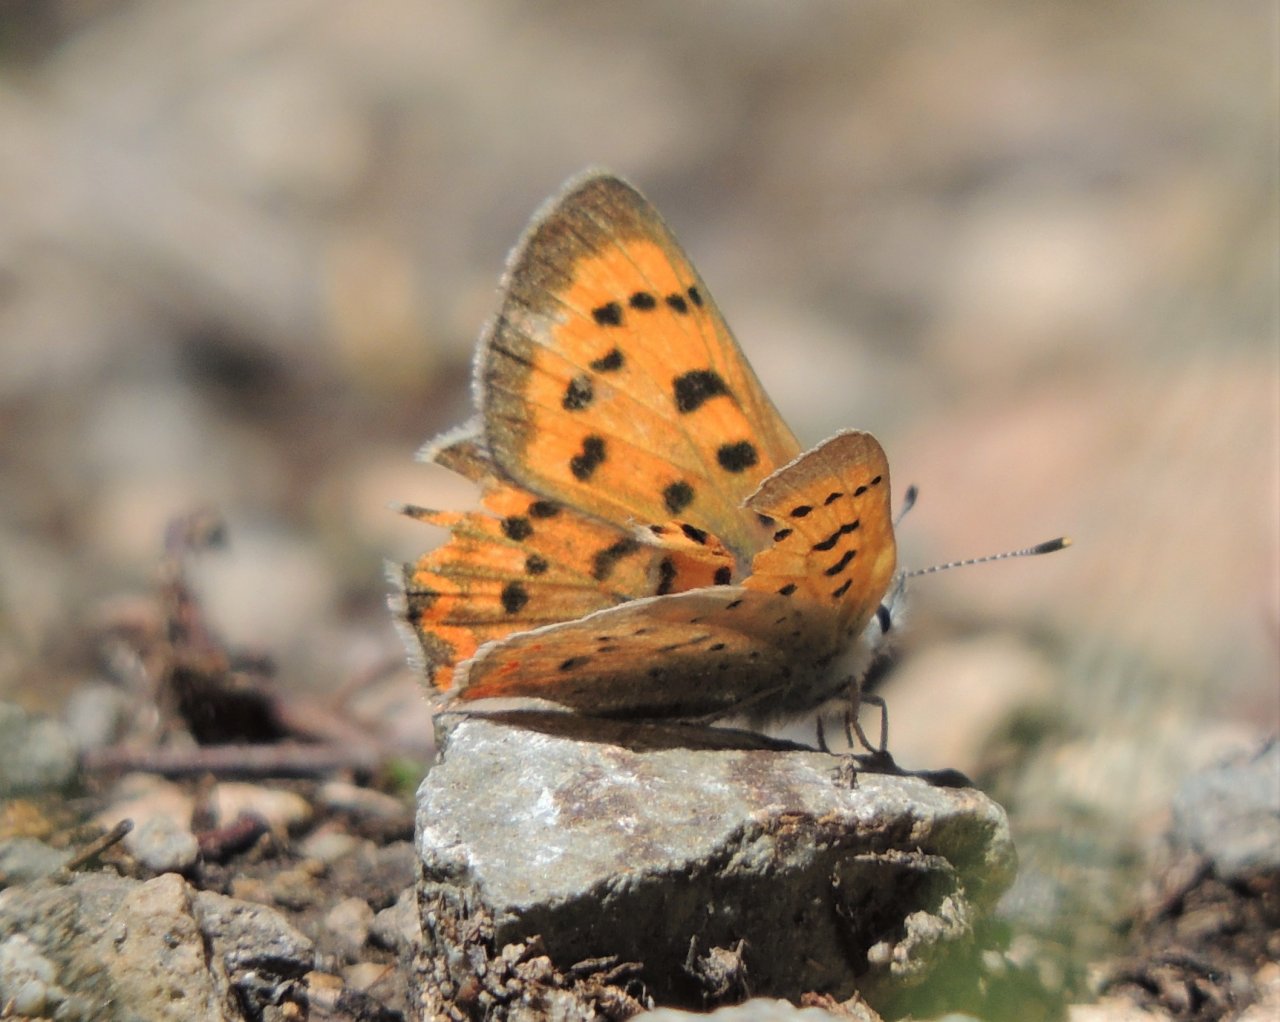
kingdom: Animalia
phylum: Arthropoda
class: Insecta
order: Lepidoptera
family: Sesiidae
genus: Sesia
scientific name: Sesia Lycaena helloides
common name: Purplish Copper
